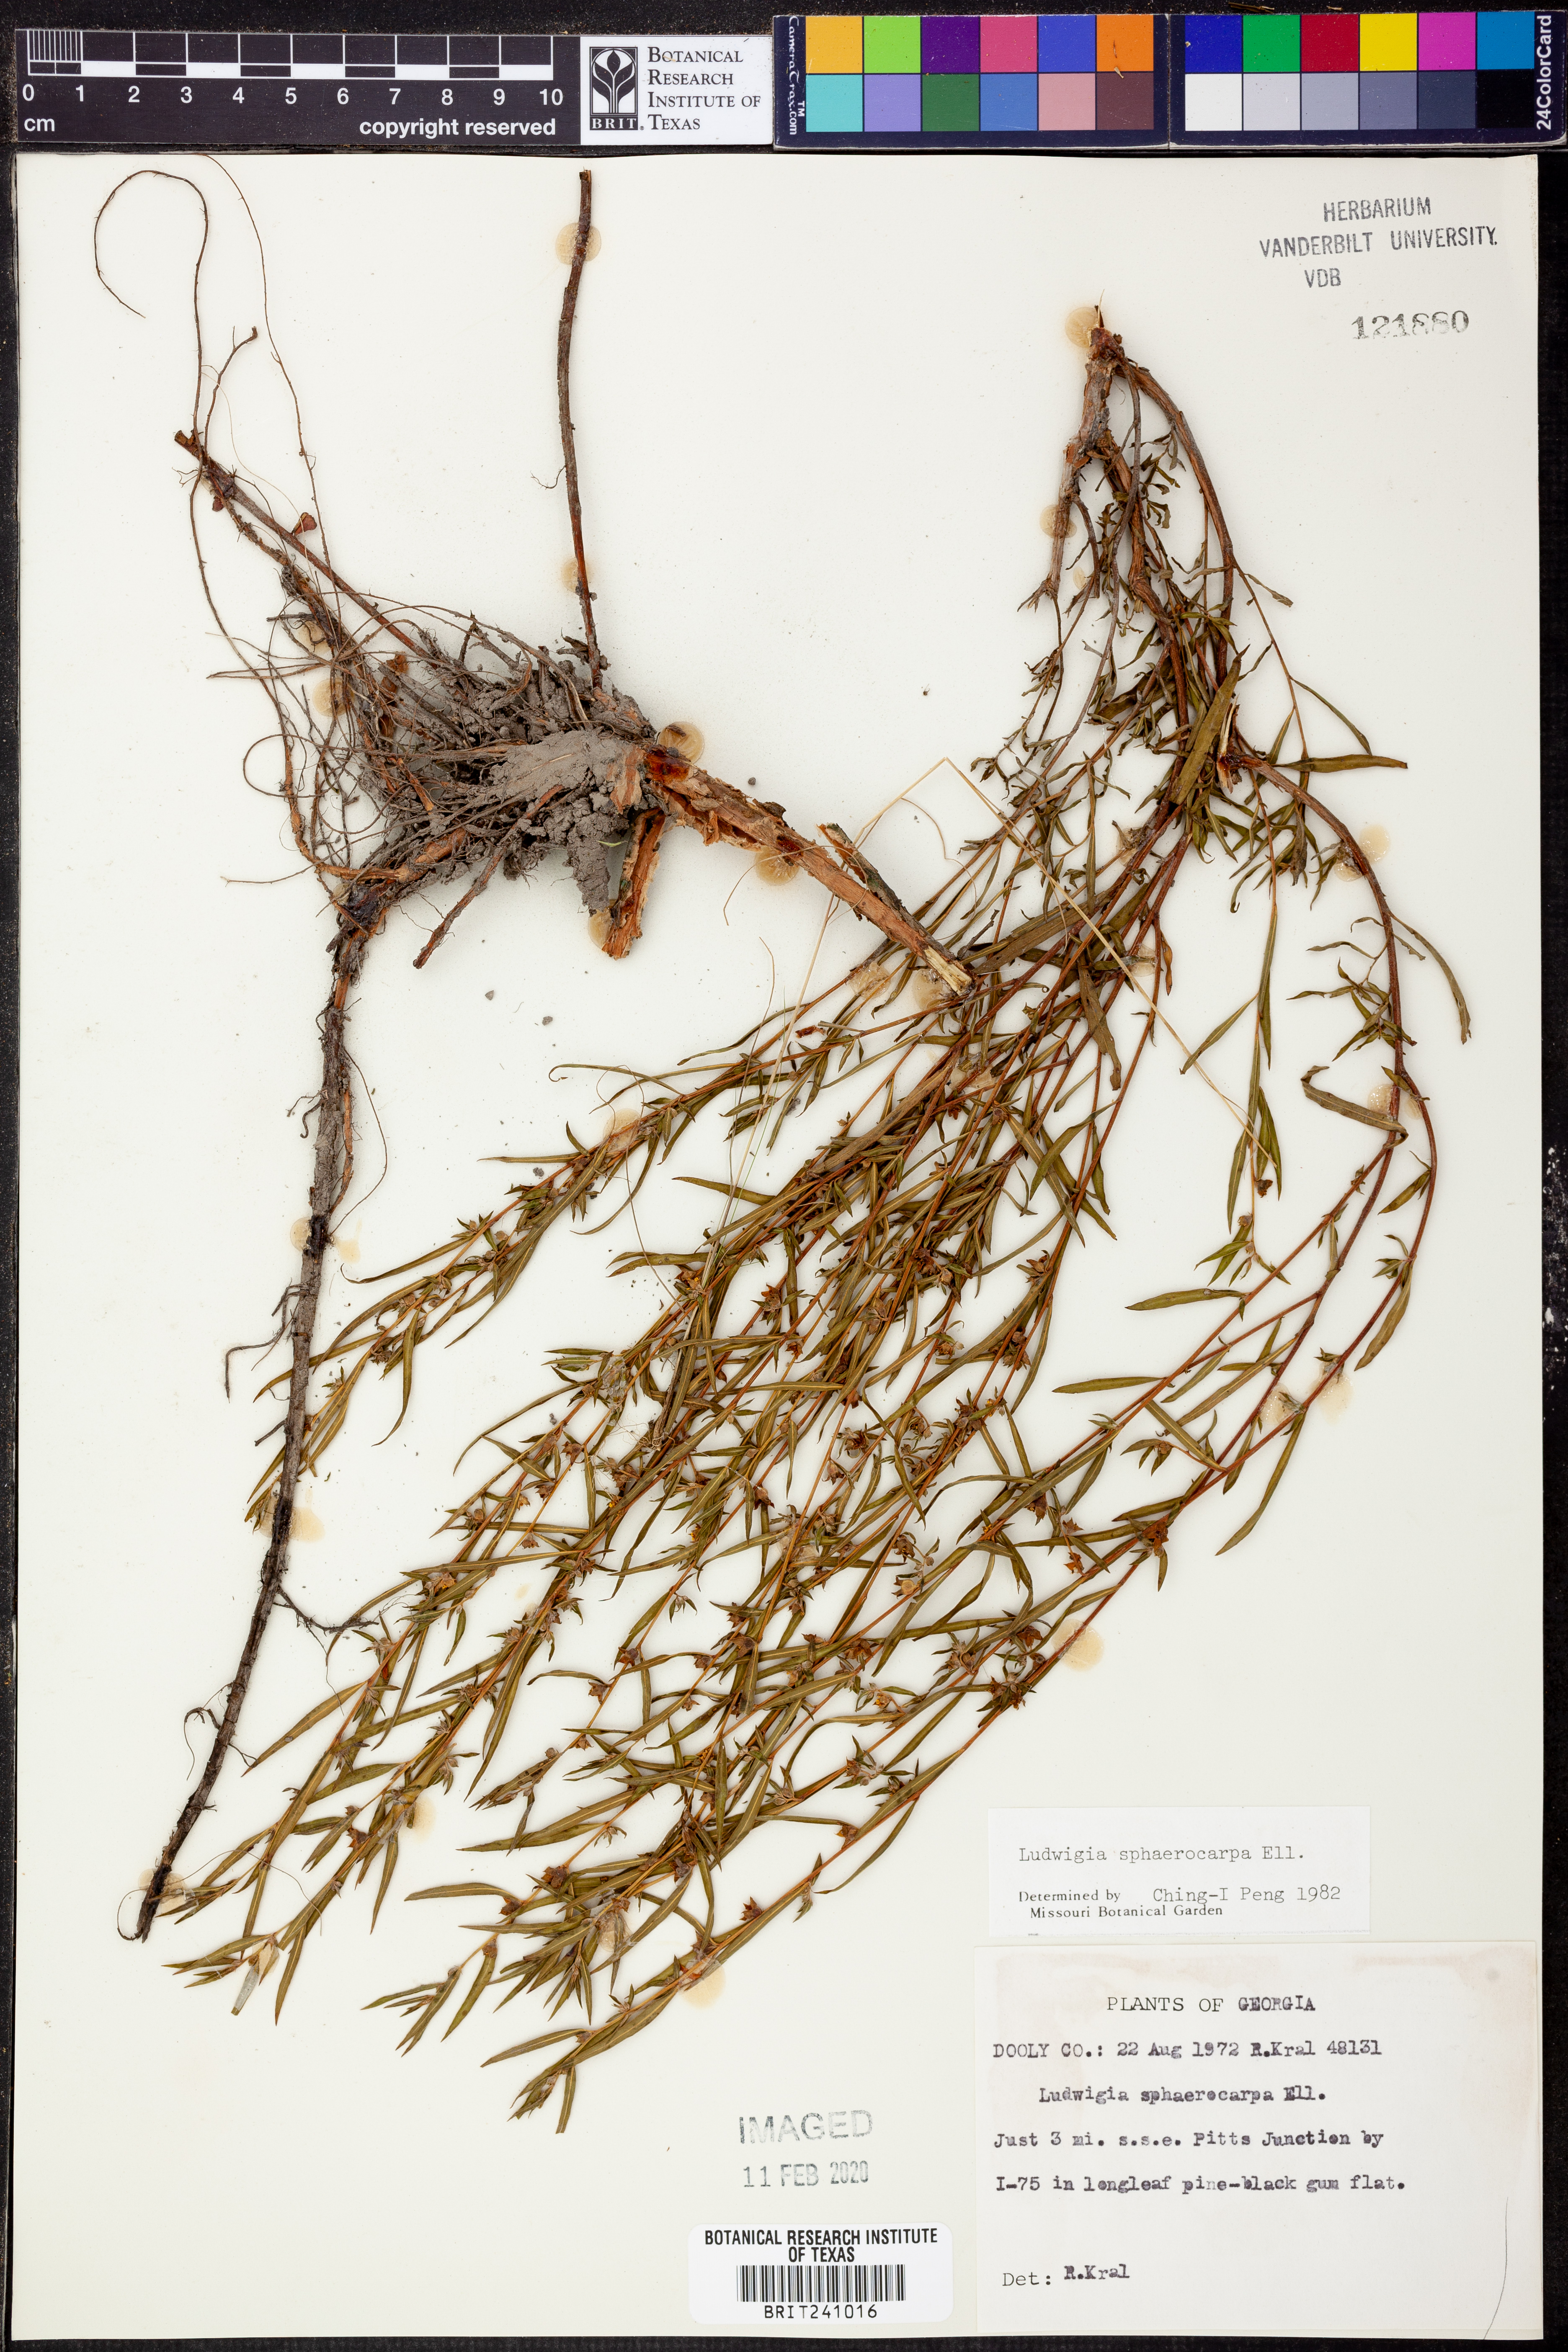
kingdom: Plantae
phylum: Tracheophyta
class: Magnoliopsida
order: Myrtales
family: Onagraceae
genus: Ludwigia
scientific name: Ludwigia sphaerocarpa
